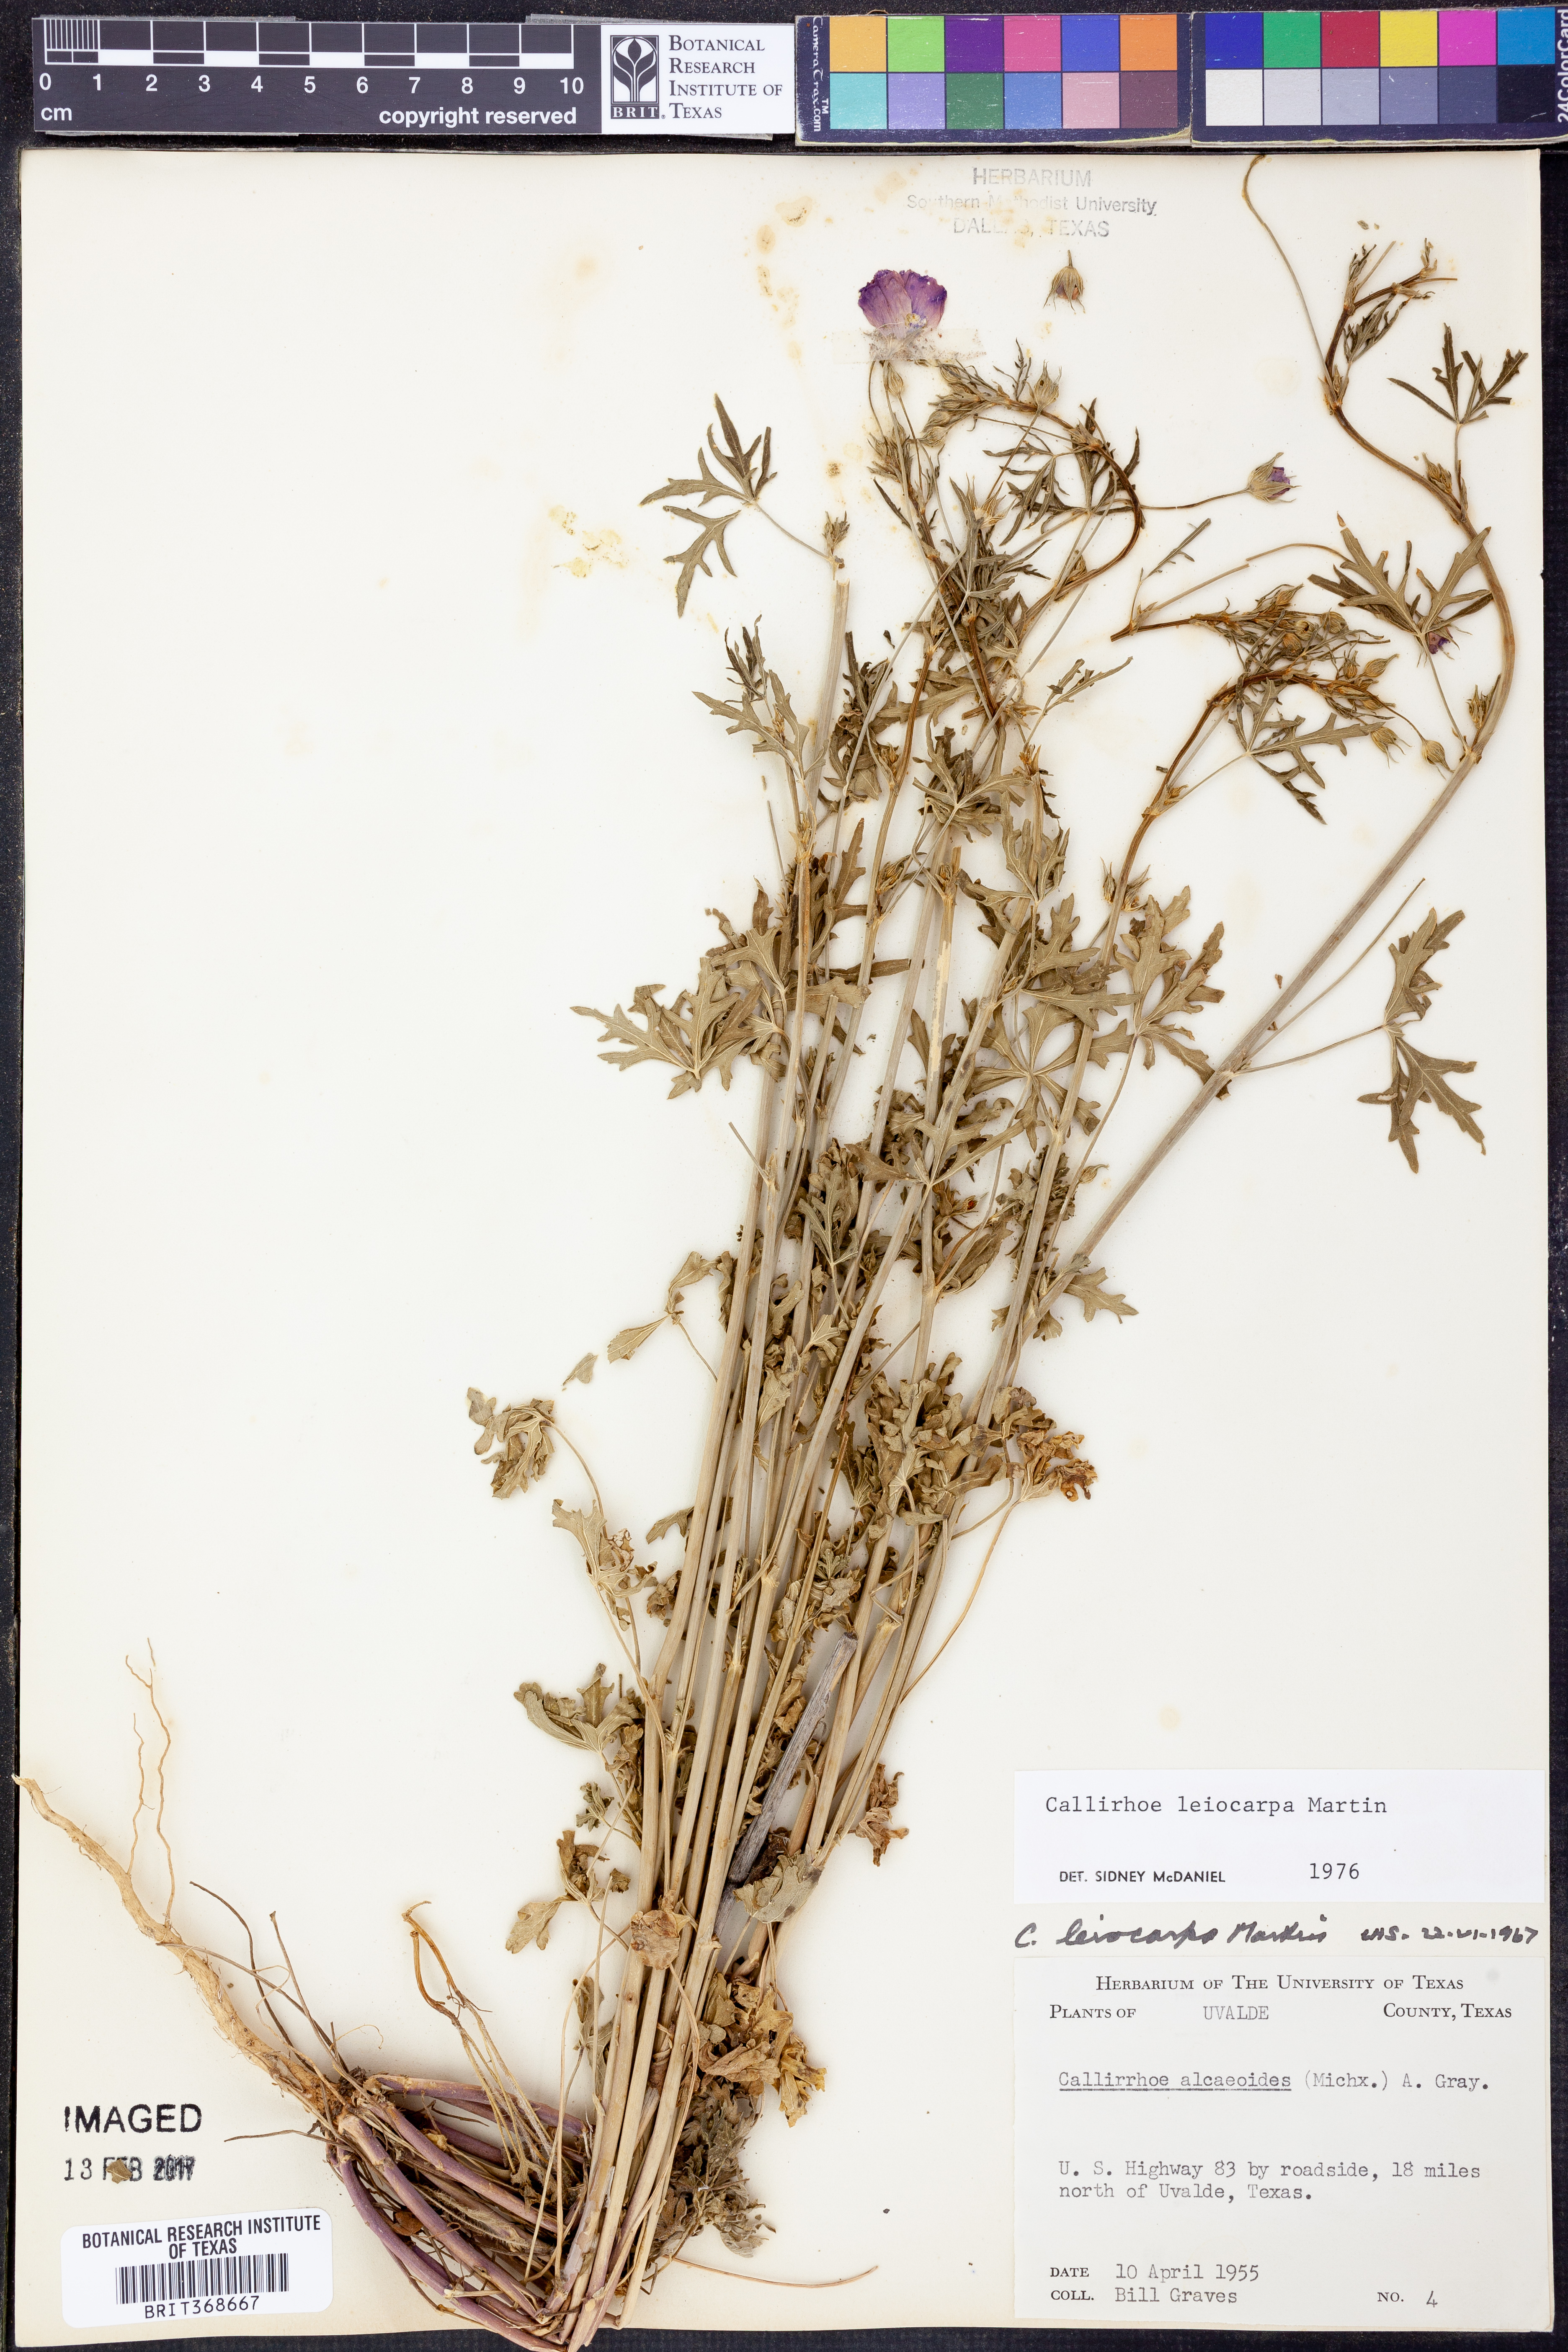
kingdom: Plantae
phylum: Tracheophyta
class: Magnoliopsida
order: Malvales
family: Malvaceae
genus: Callirhoe
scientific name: Callirhoe leiocarpa
